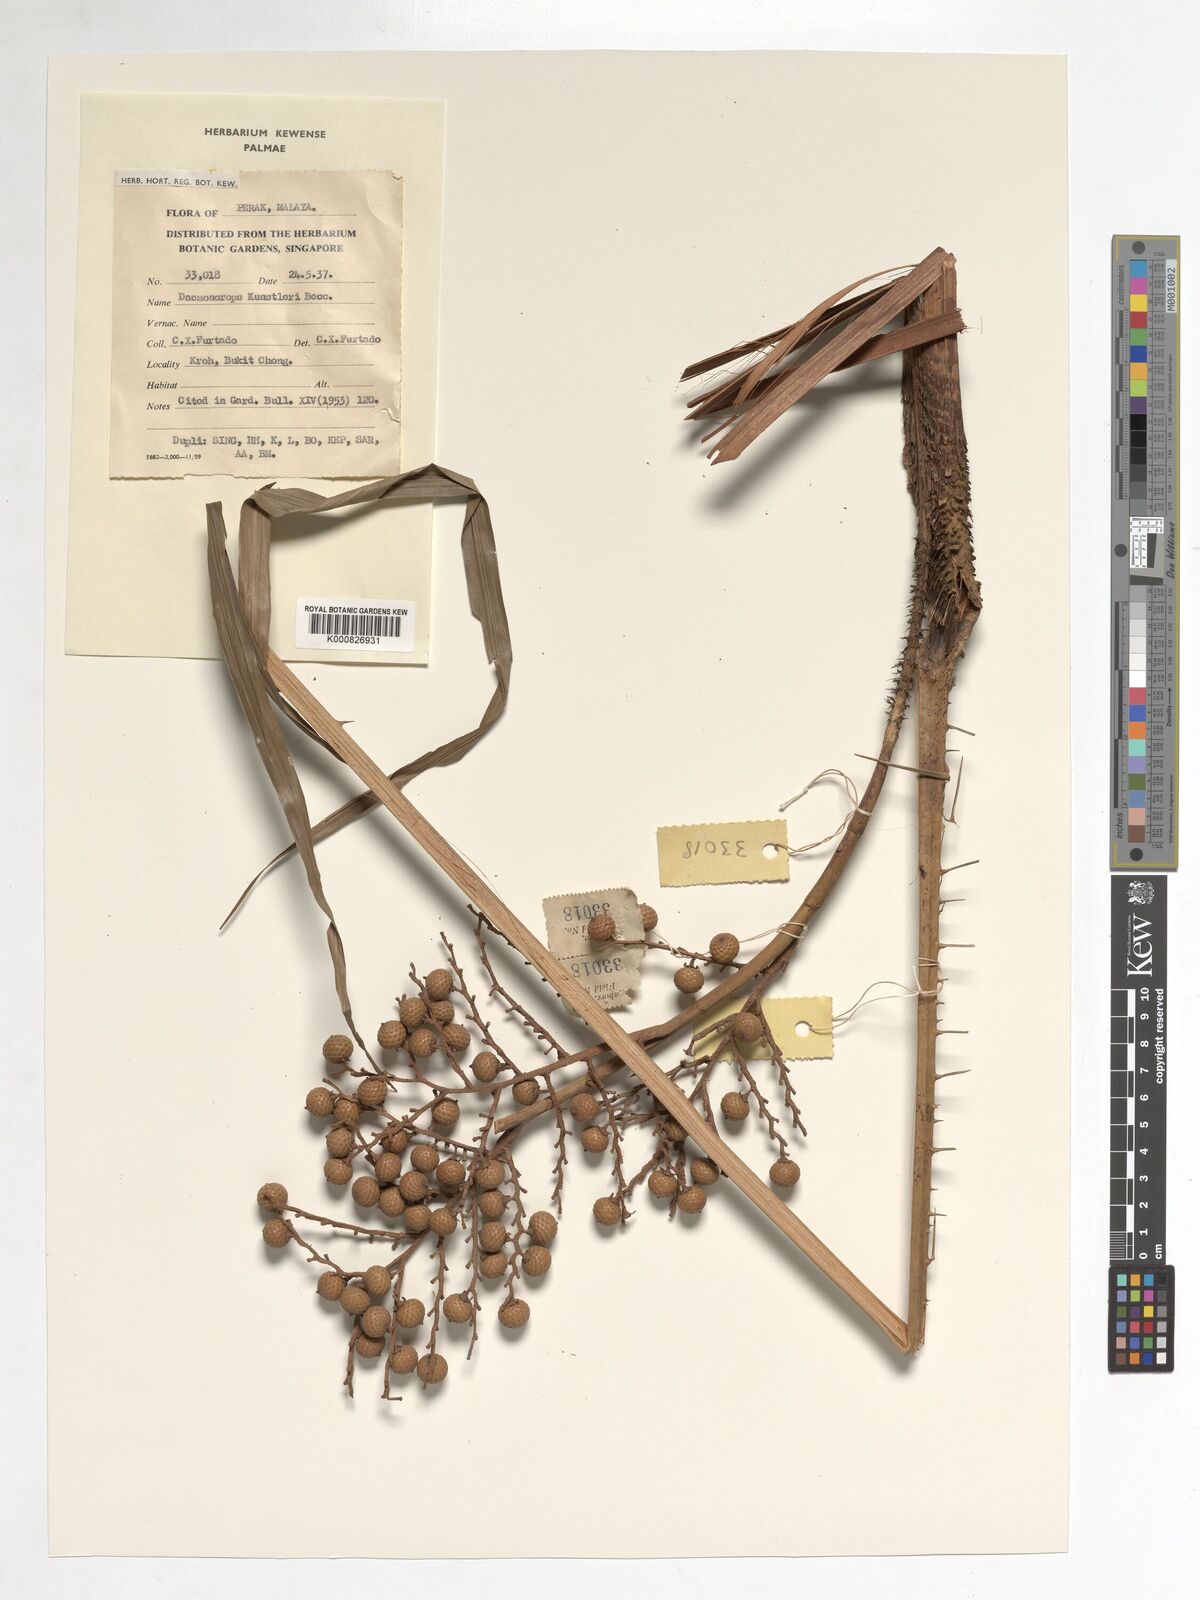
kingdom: Plantae
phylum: Tracheophyta
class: Liliopsida
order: Arecales
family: Arecaceae
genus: Calamus
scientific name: Calamus kunstleri
